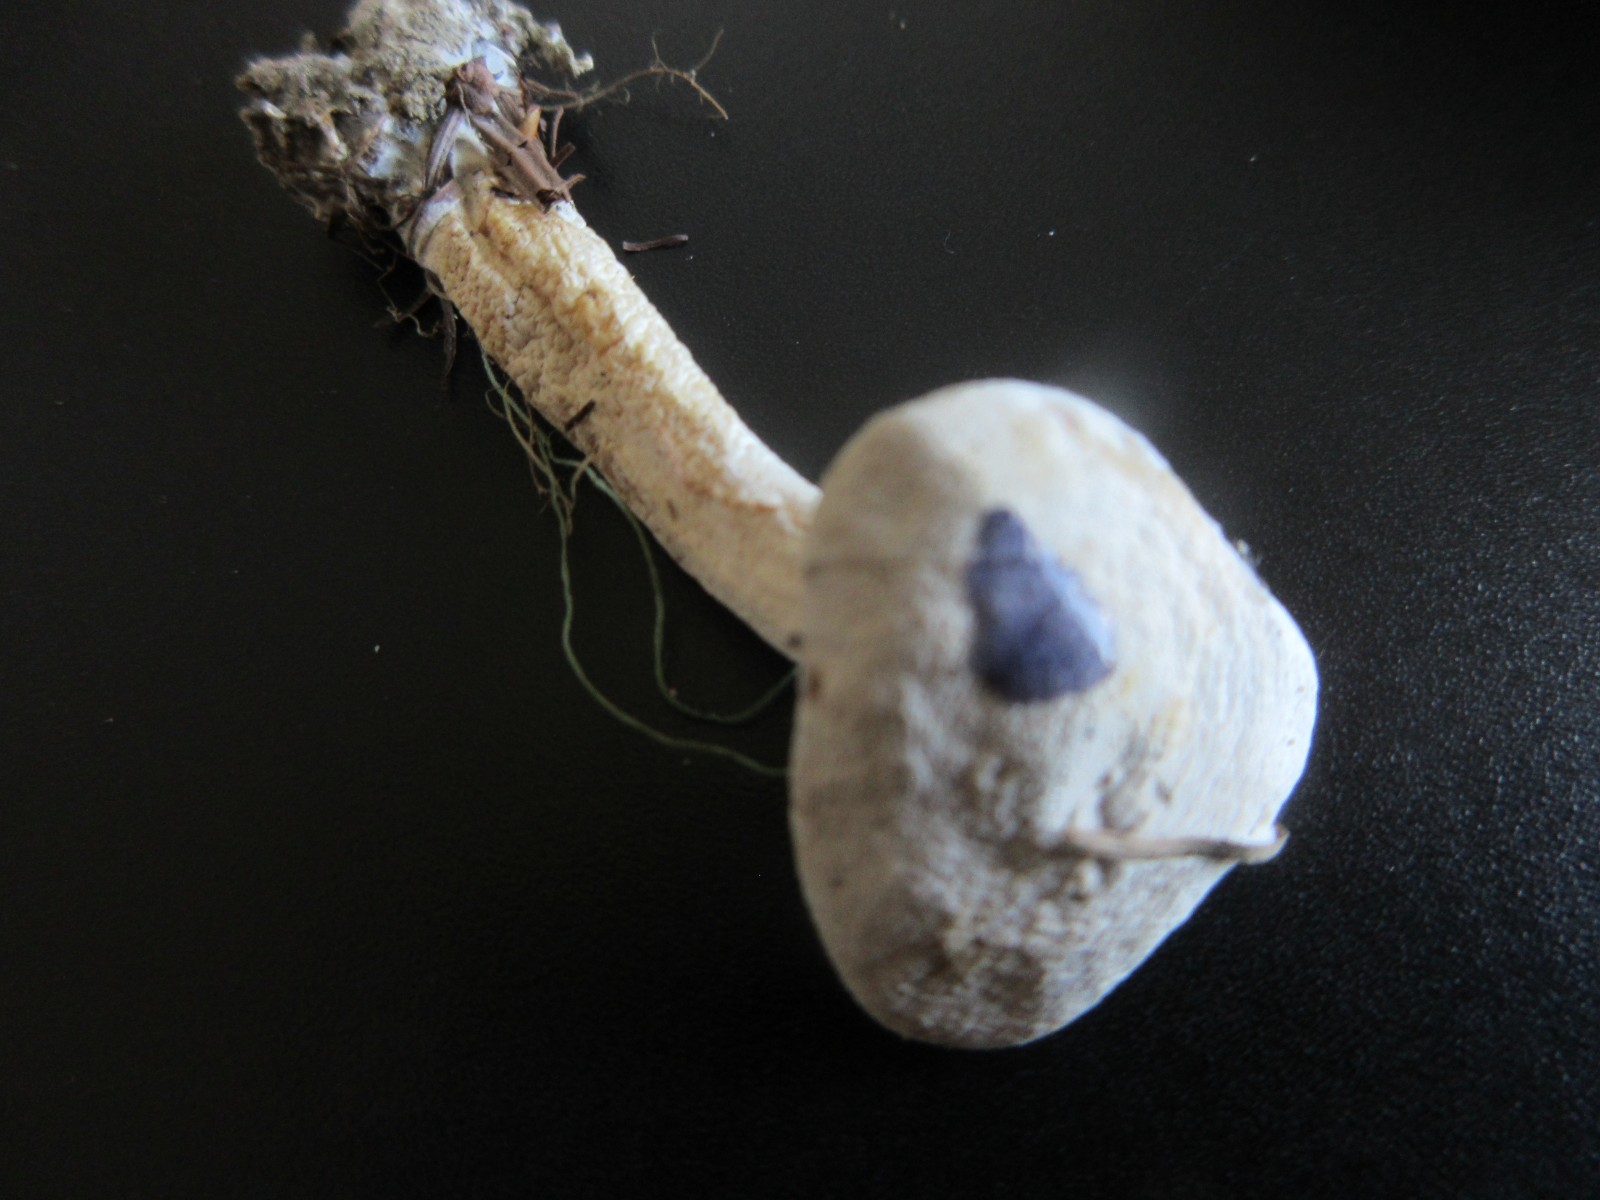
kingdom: Fungi
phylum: Basidiomycota
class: Agaricomycetes
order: Agaricales
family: Tricholomataceae
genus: Leucocybe
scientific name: Leucocybe connata
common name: knippe-tragthat
